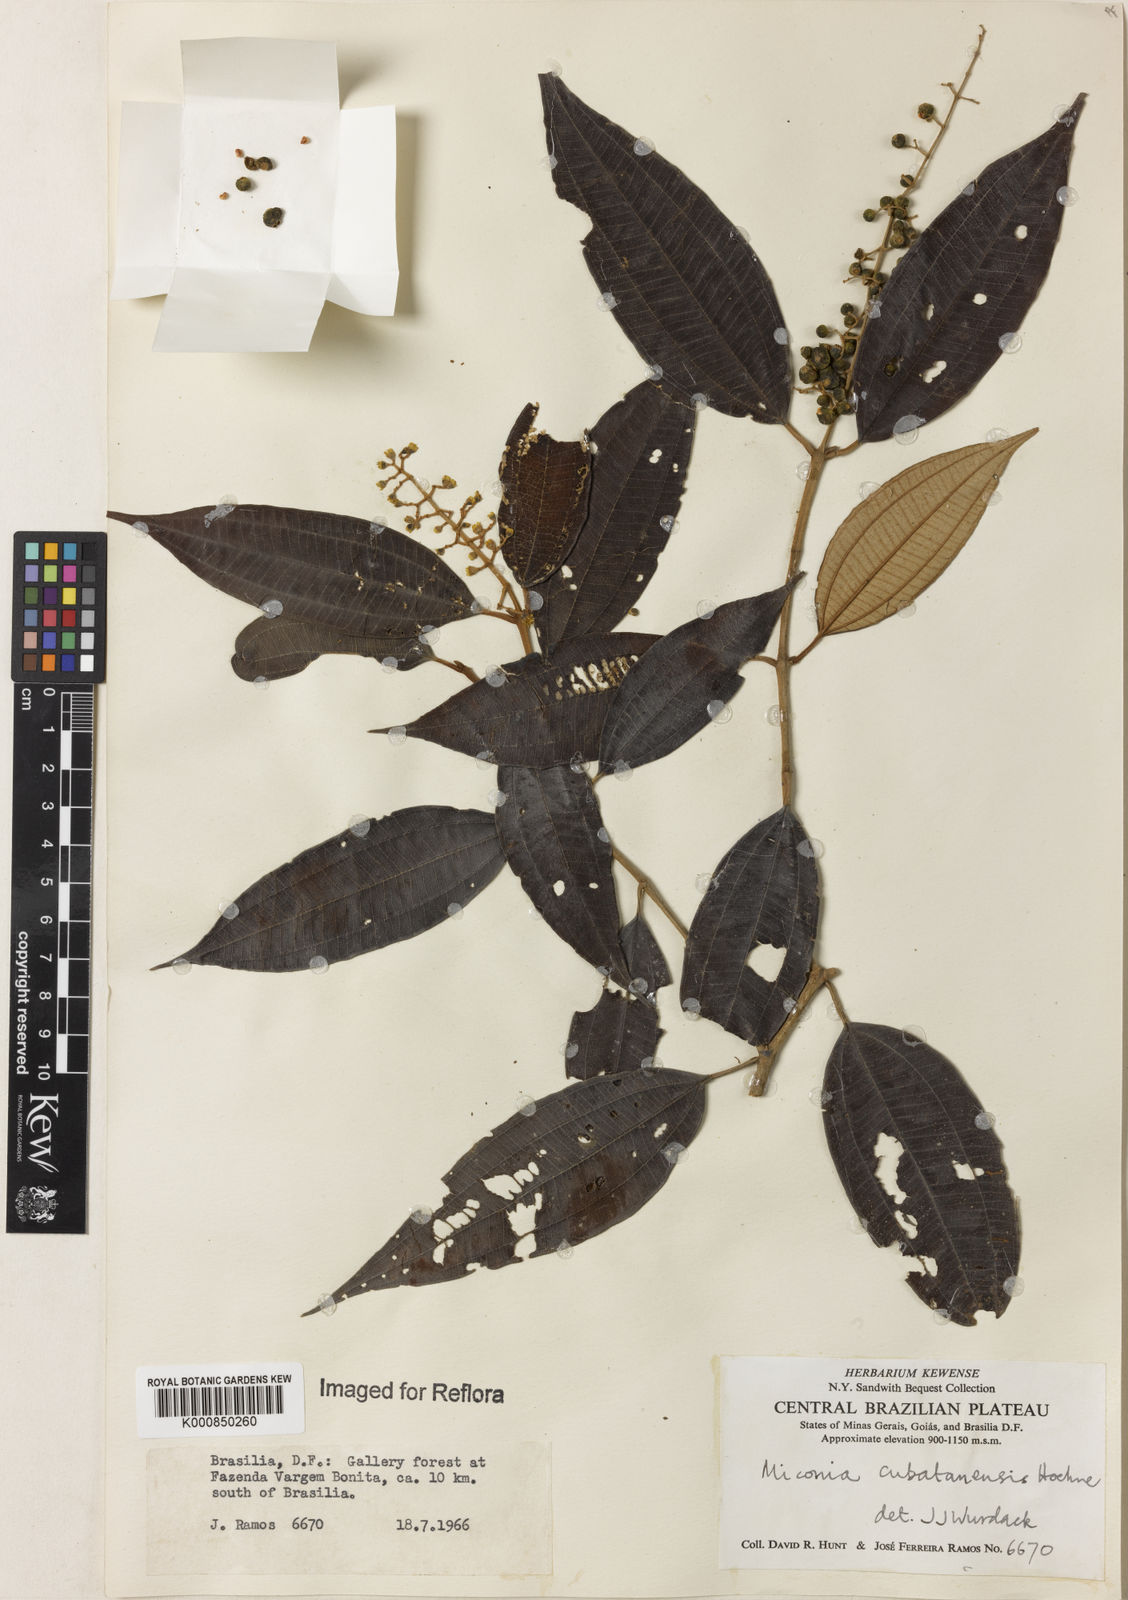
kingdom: Plantae
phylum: Tracheophyta
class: Magnoliopsida
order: Myrtales
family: Melastomataceae
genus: Miconia
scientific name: Miconia cubatanensis
